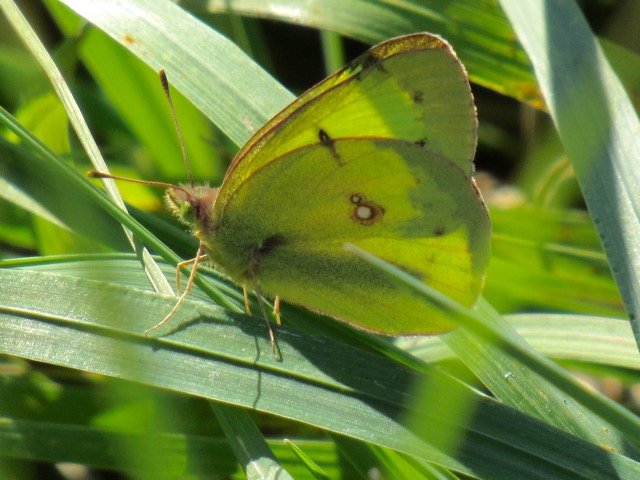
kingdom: Animalia
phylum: Arthropoda
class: Insecta
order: Lepidoptera
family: Pieridae
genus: Colias
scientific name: Colias philodice
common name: Clouded Sulphur
